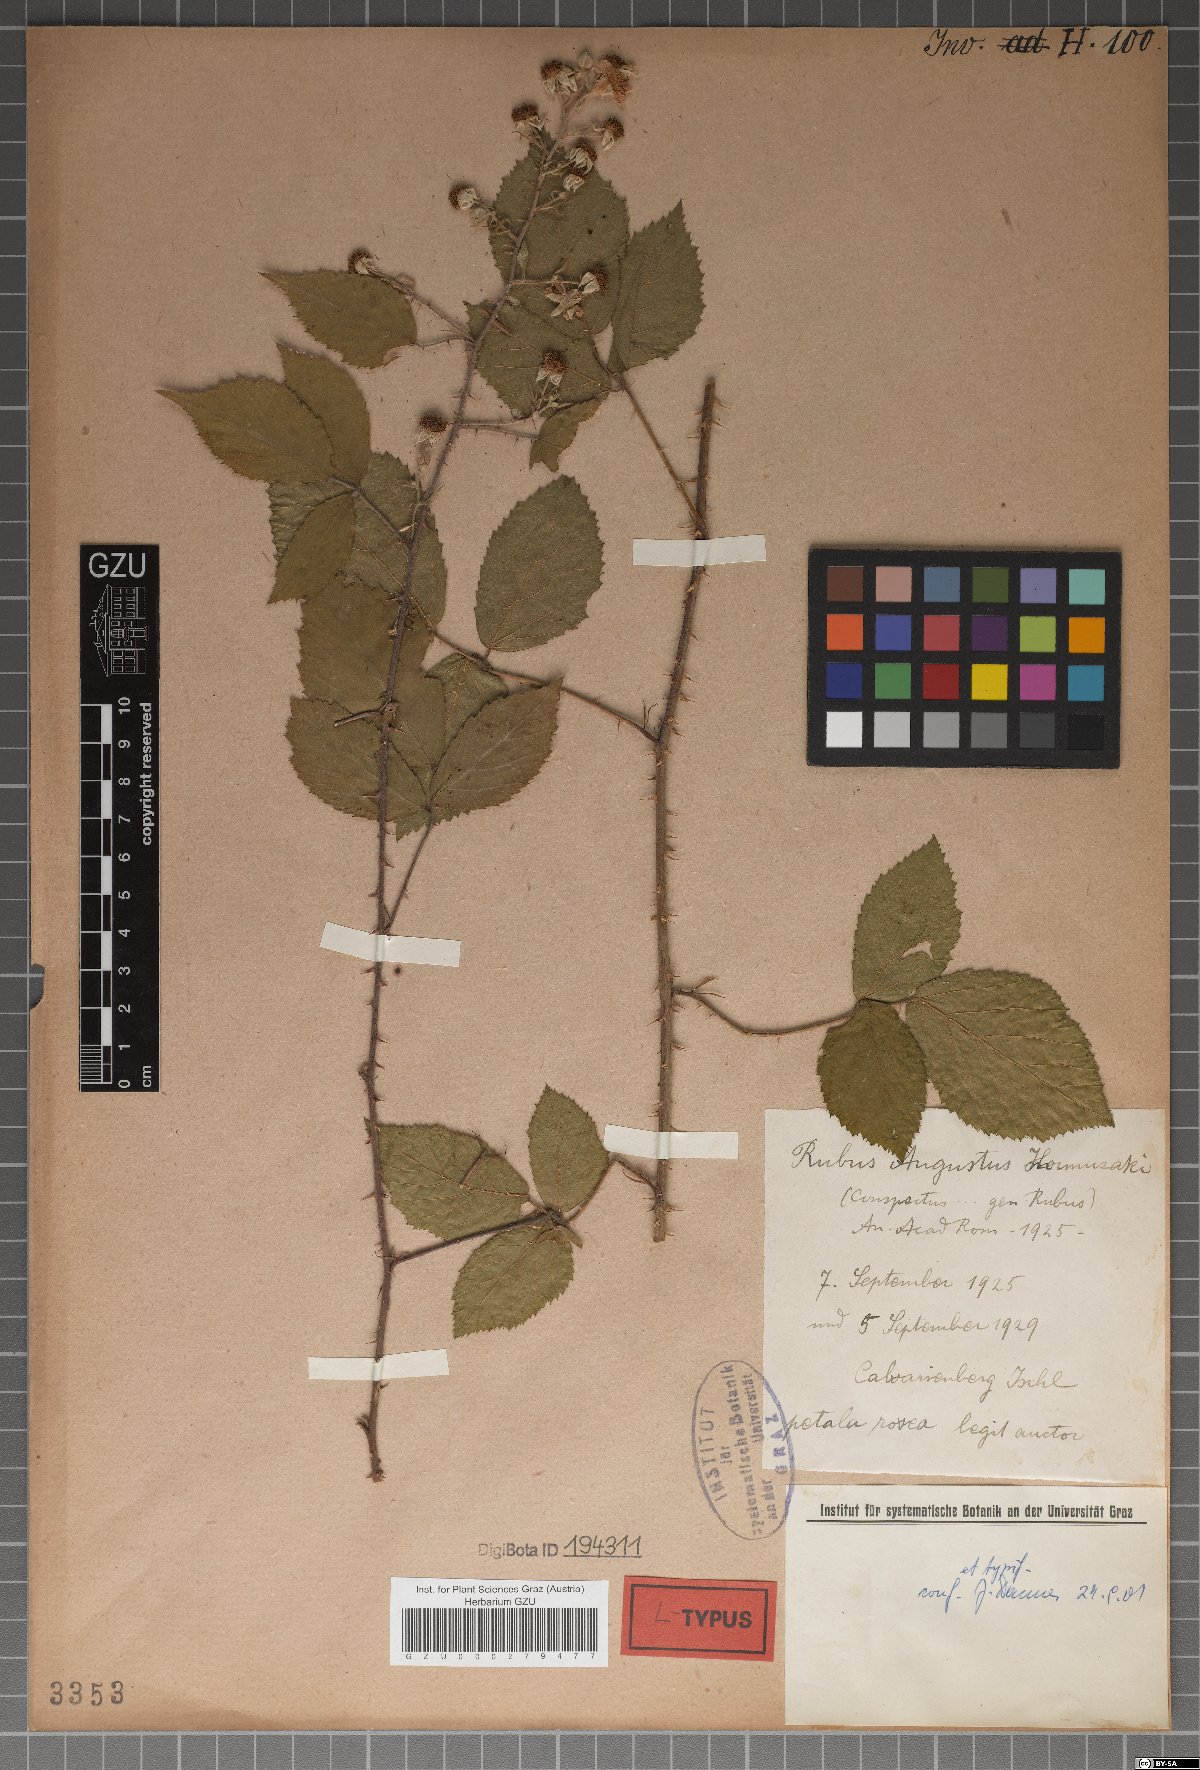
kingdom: Plantae
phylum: Tracheophyta
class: Magnoliopsida
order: Rosales
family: Rosaceae
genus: Rubus
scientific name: Rubus augustus
